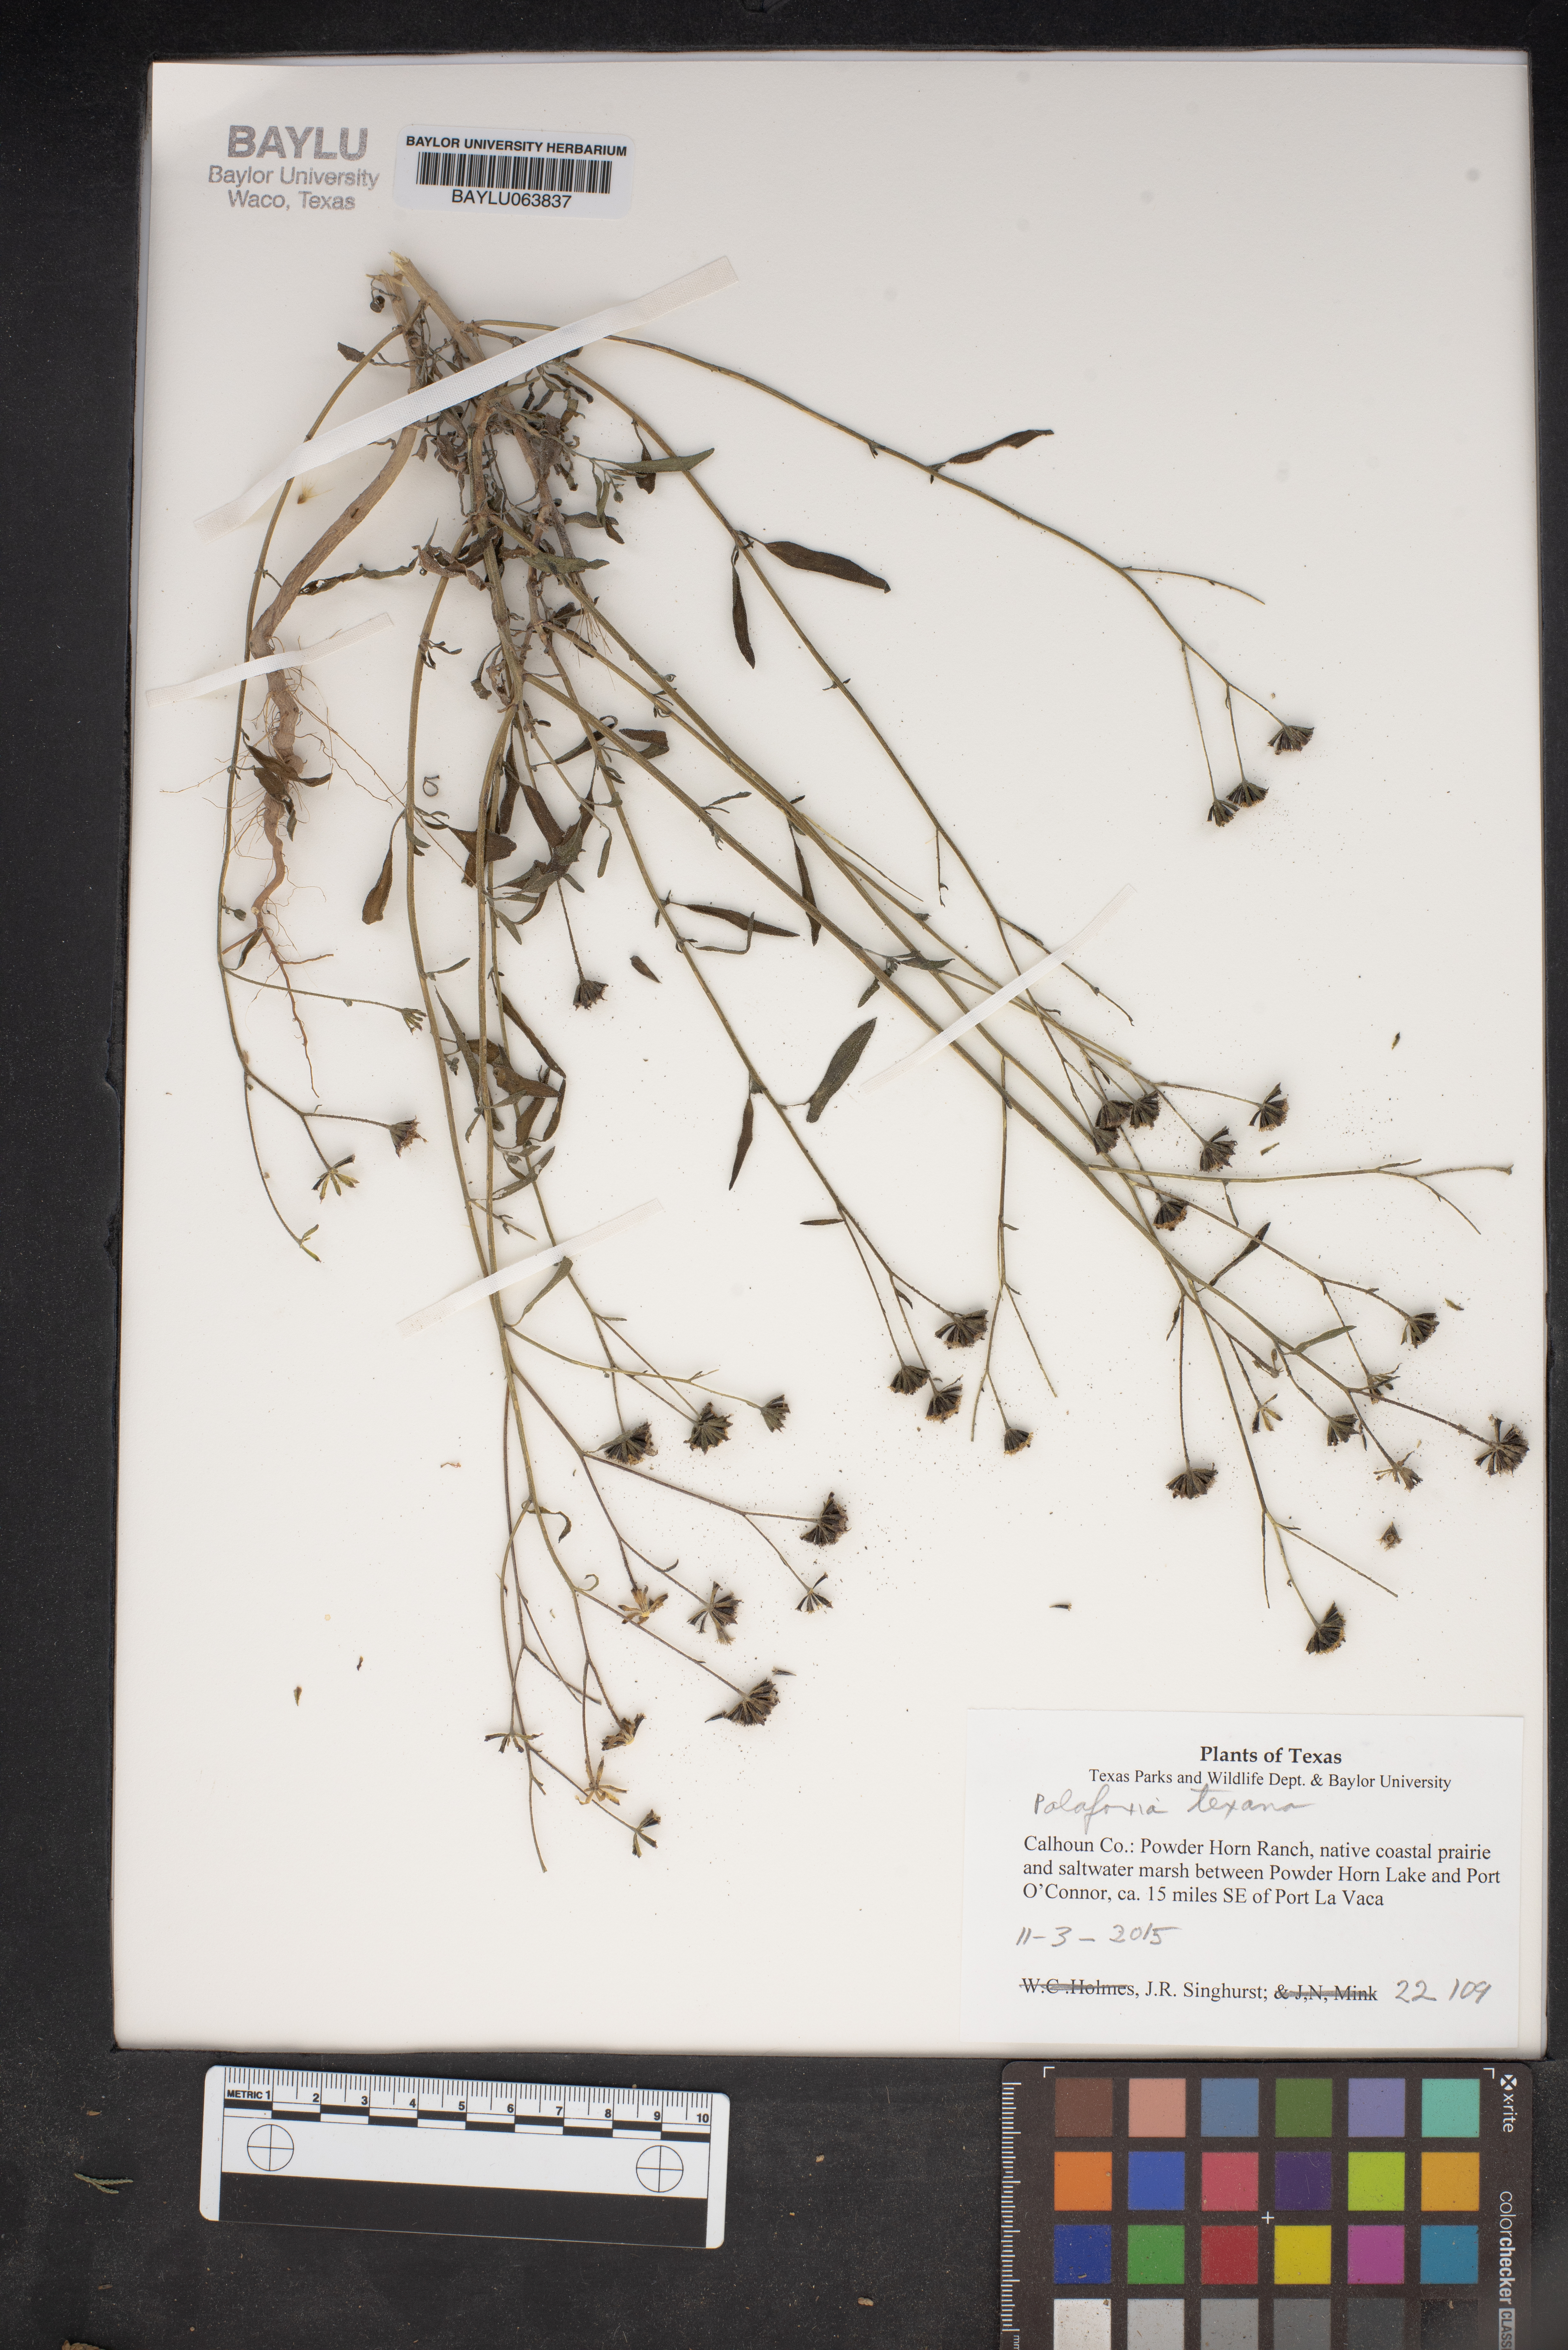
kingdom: Plantae
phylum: Tracheophyta
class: Magnoliopsida
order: Asterales
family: Asteraceae
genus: Palafoxia
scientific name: Palafoxia texana
